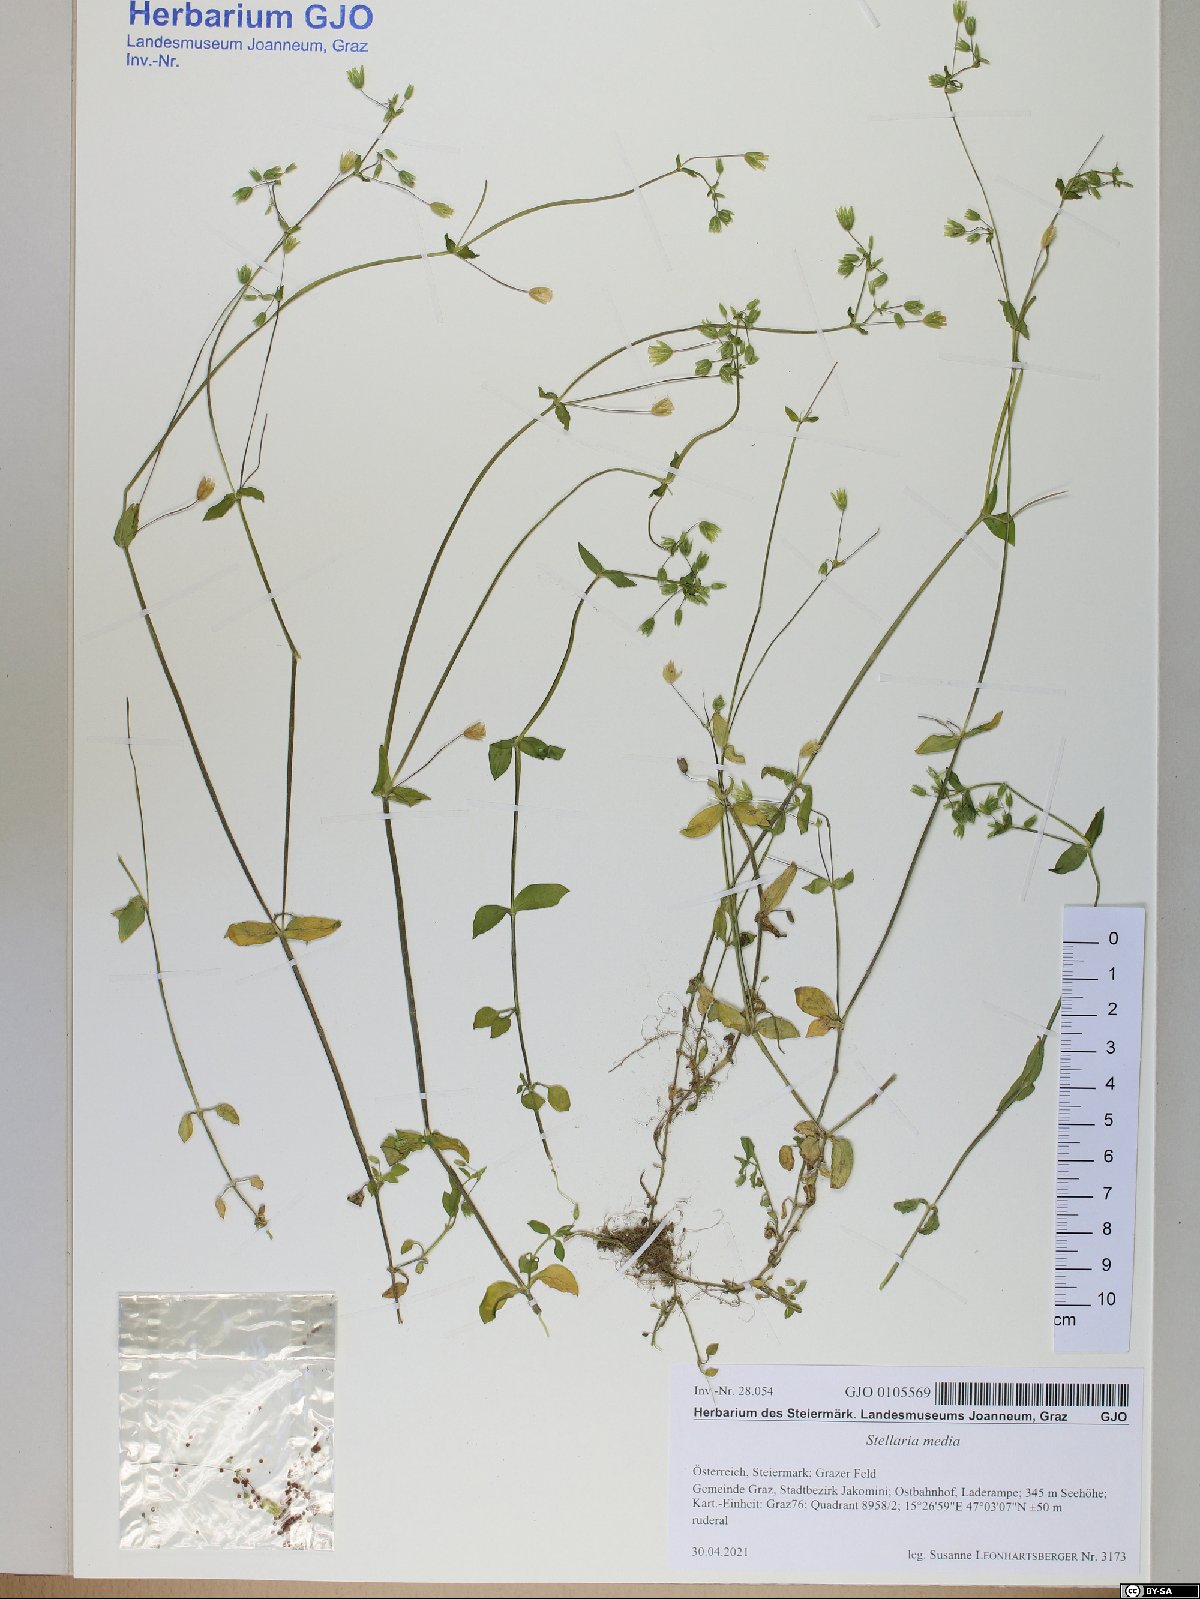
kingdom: Plantae
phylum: Tracheophyta
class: Magnoliopsida
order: Caryophyllales
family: Caryophyllaceae
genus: Stellaria
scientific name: Stellaria media
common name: Common chickweed
